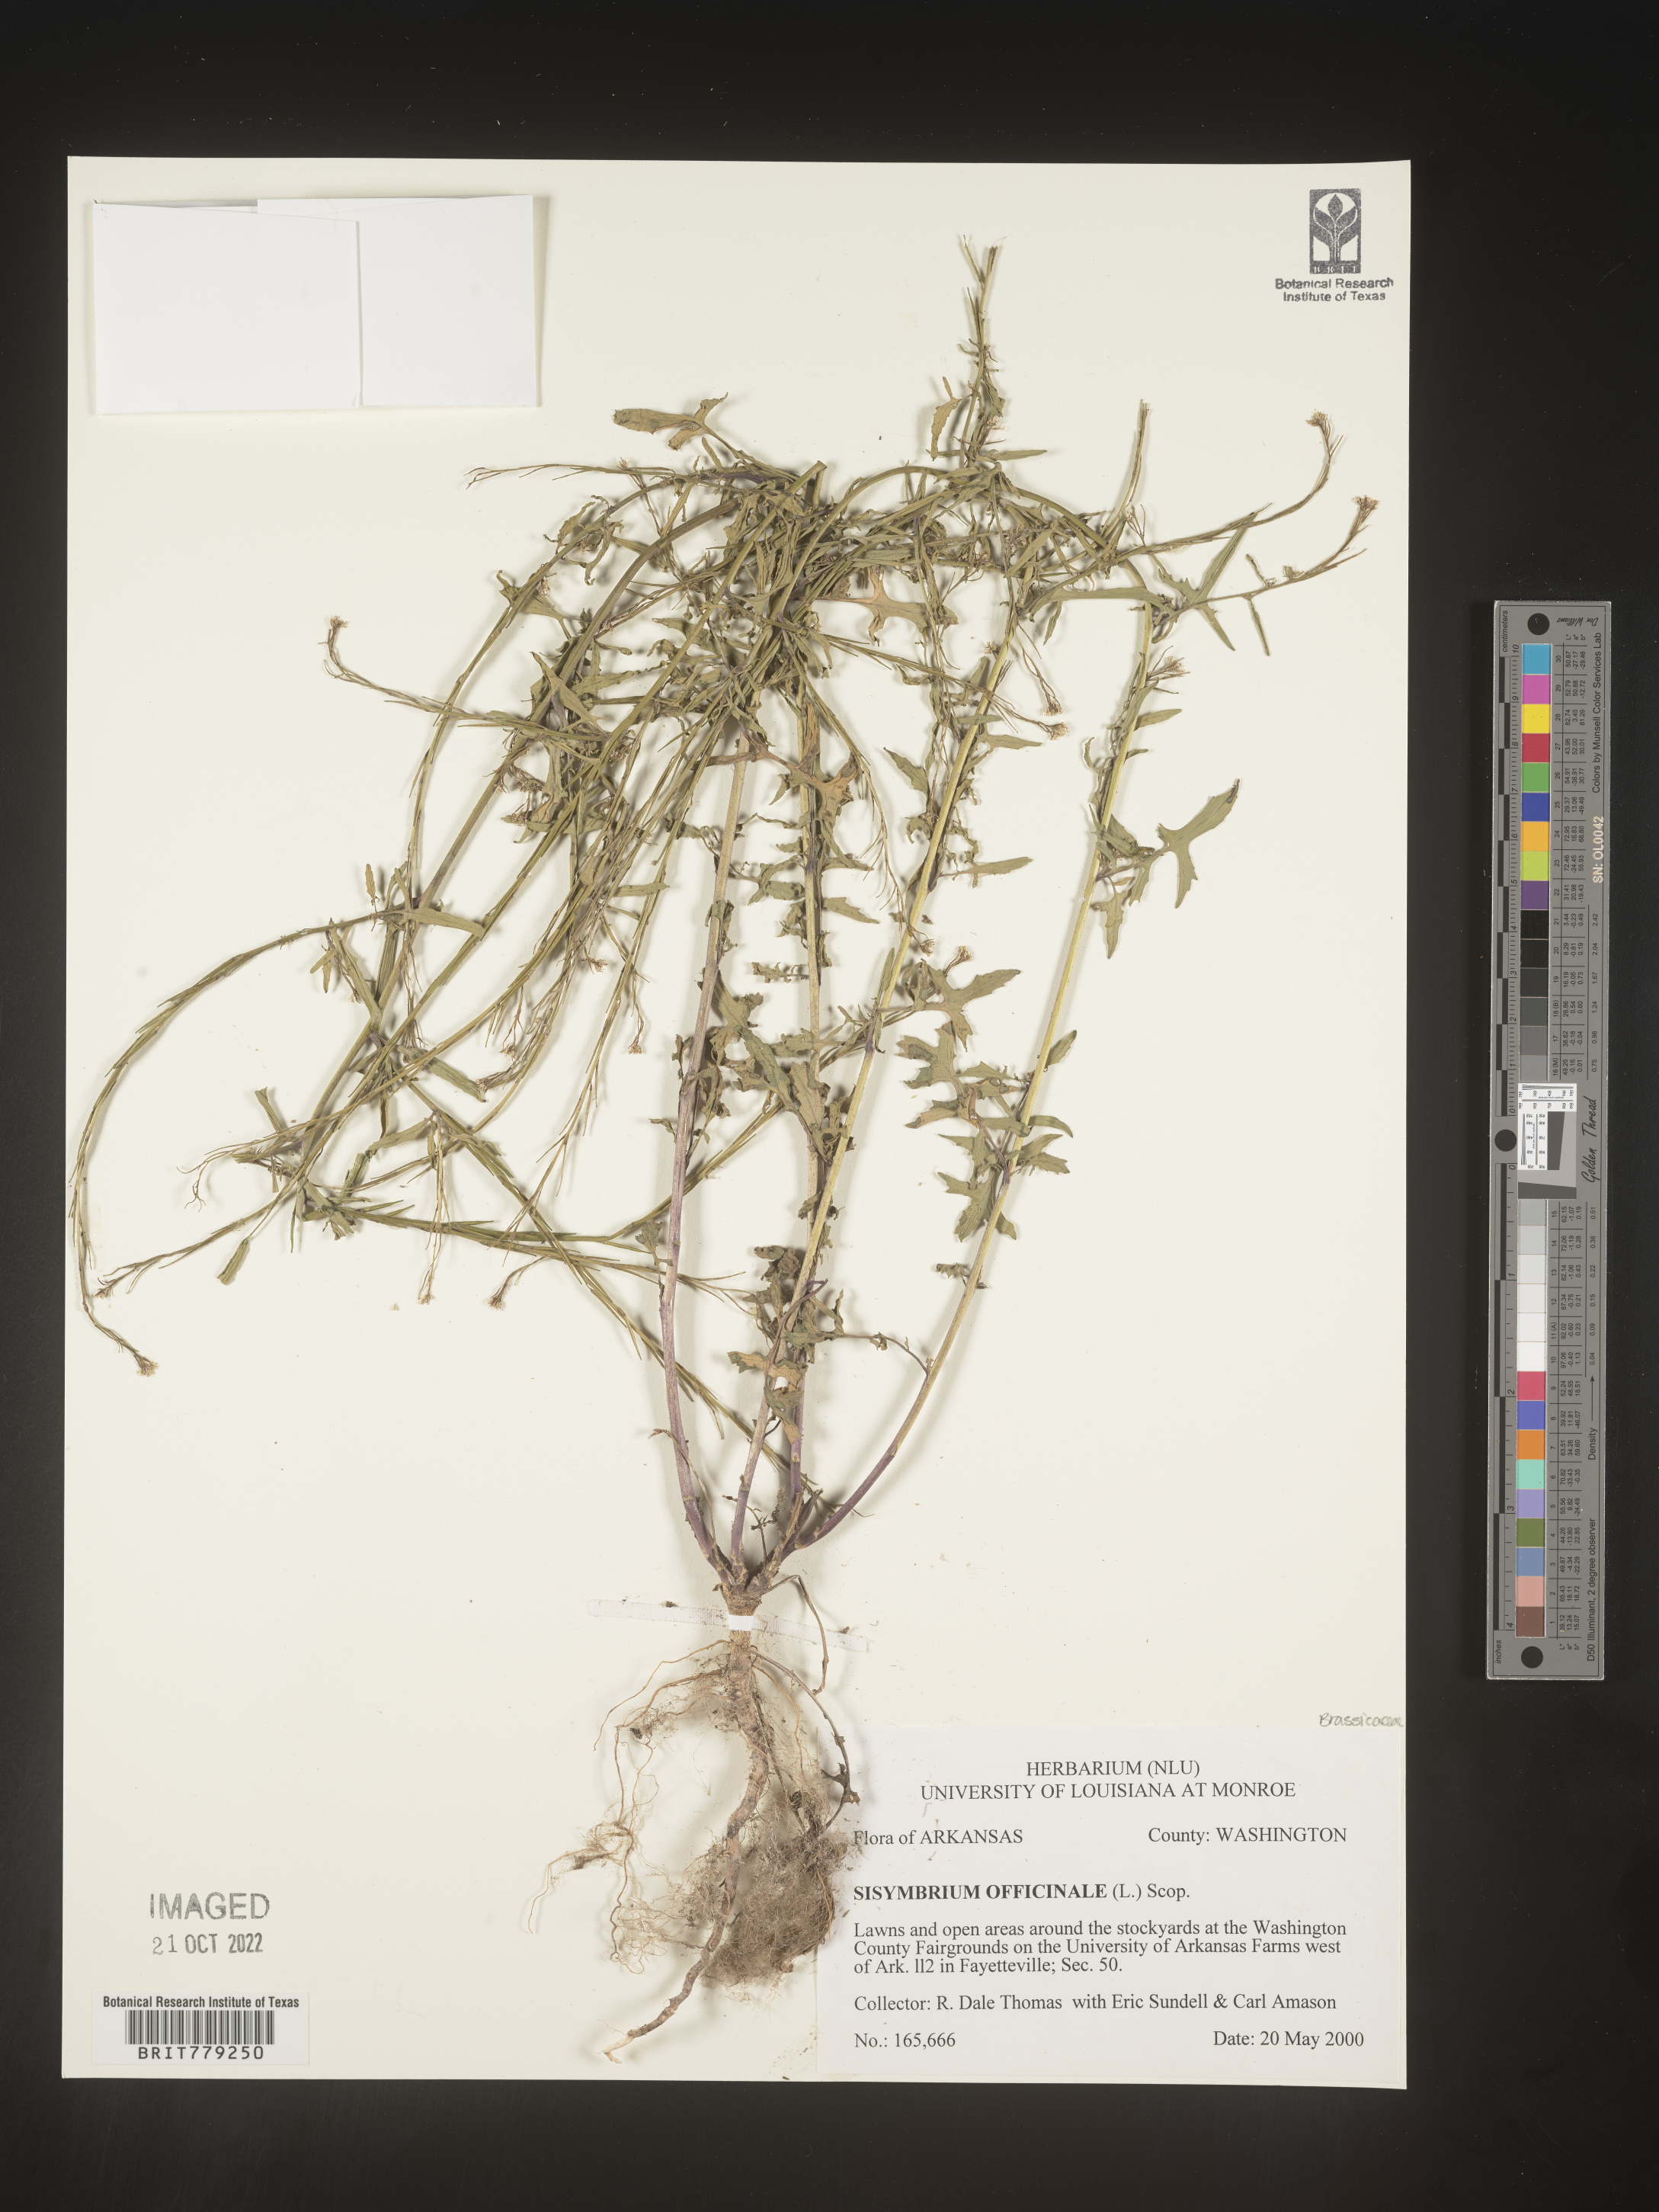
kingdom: Plantae
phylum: Tracheophyta
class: Magnoliopsida
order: Brassicales
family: Brassicaceae
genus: Sisymbrium
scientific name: Sisymbrium officinale
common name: Hedge mustard
